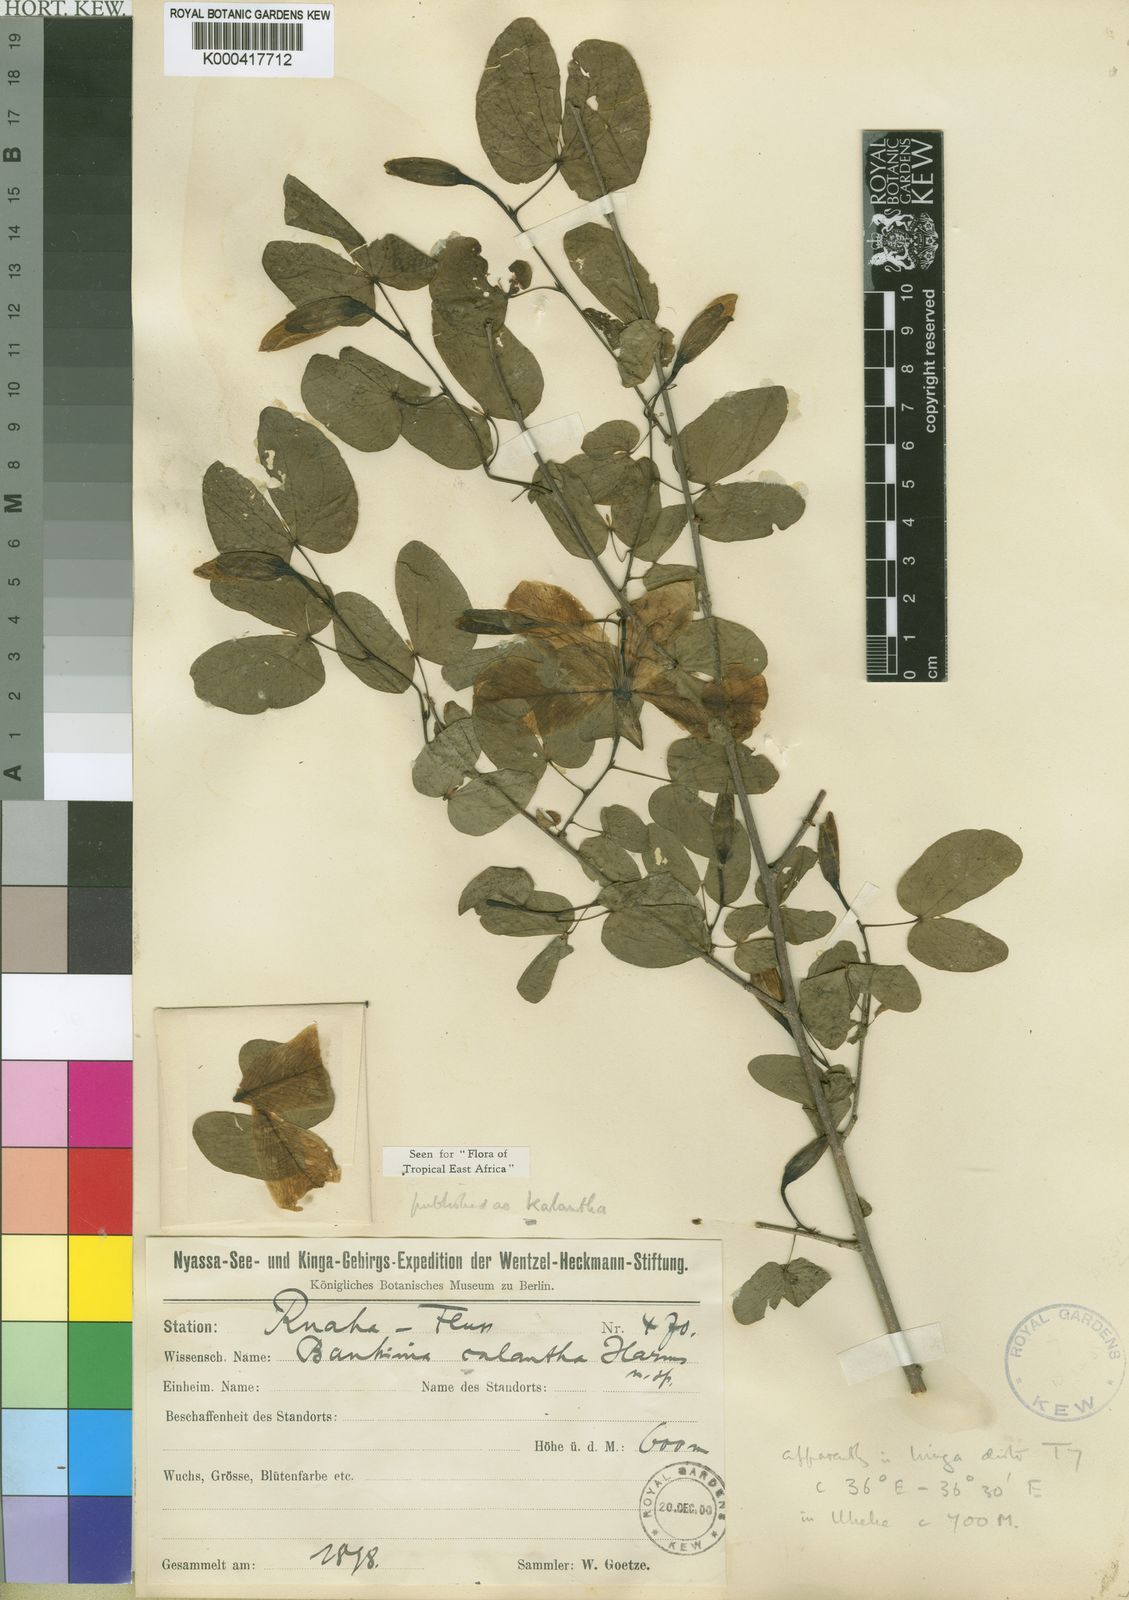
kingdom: Plantae
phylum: Tracheophyta
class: Magnoliopsida
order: Fabales
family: Fabaceae
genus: Bauhinia
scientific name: Bauhinia kalantha
